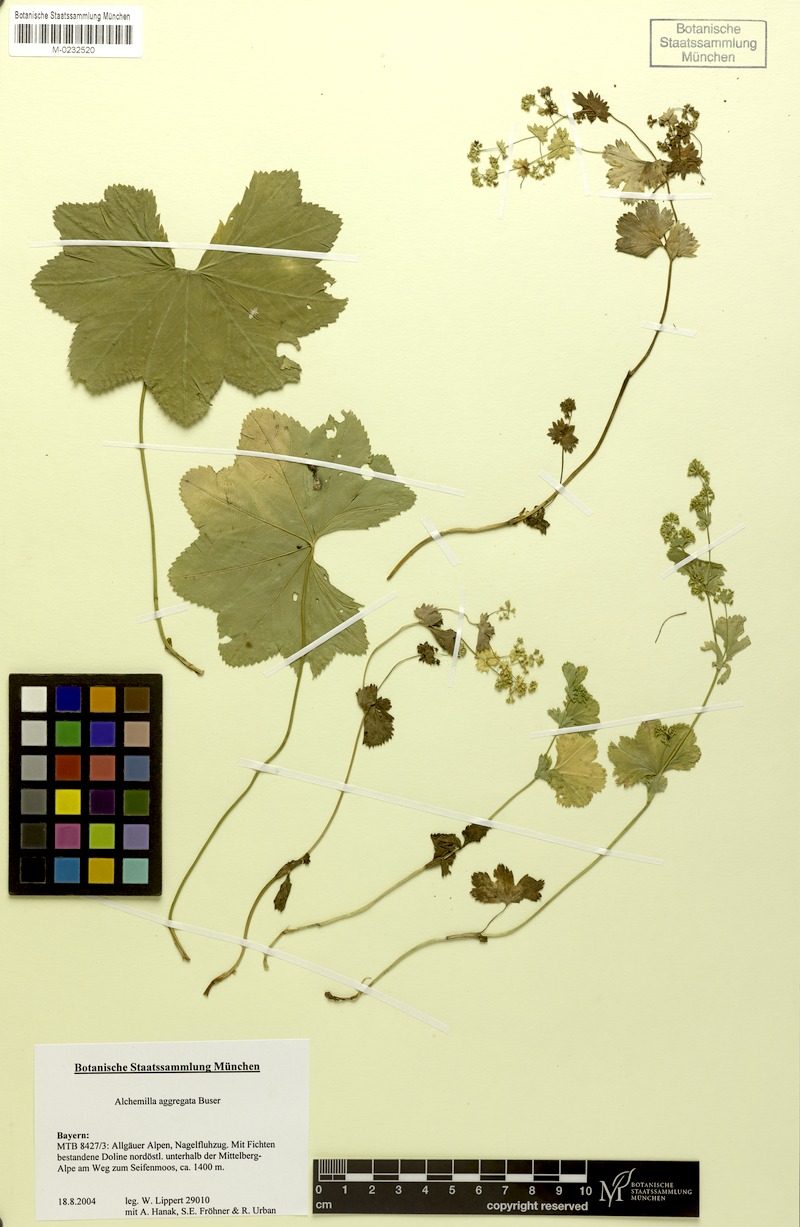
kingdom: Plantae
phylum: Tracheophyta
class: Magnoliopsida
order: Rosales
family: Rosaceae
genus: Alchemilla
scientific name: Alchemilla aggregata
